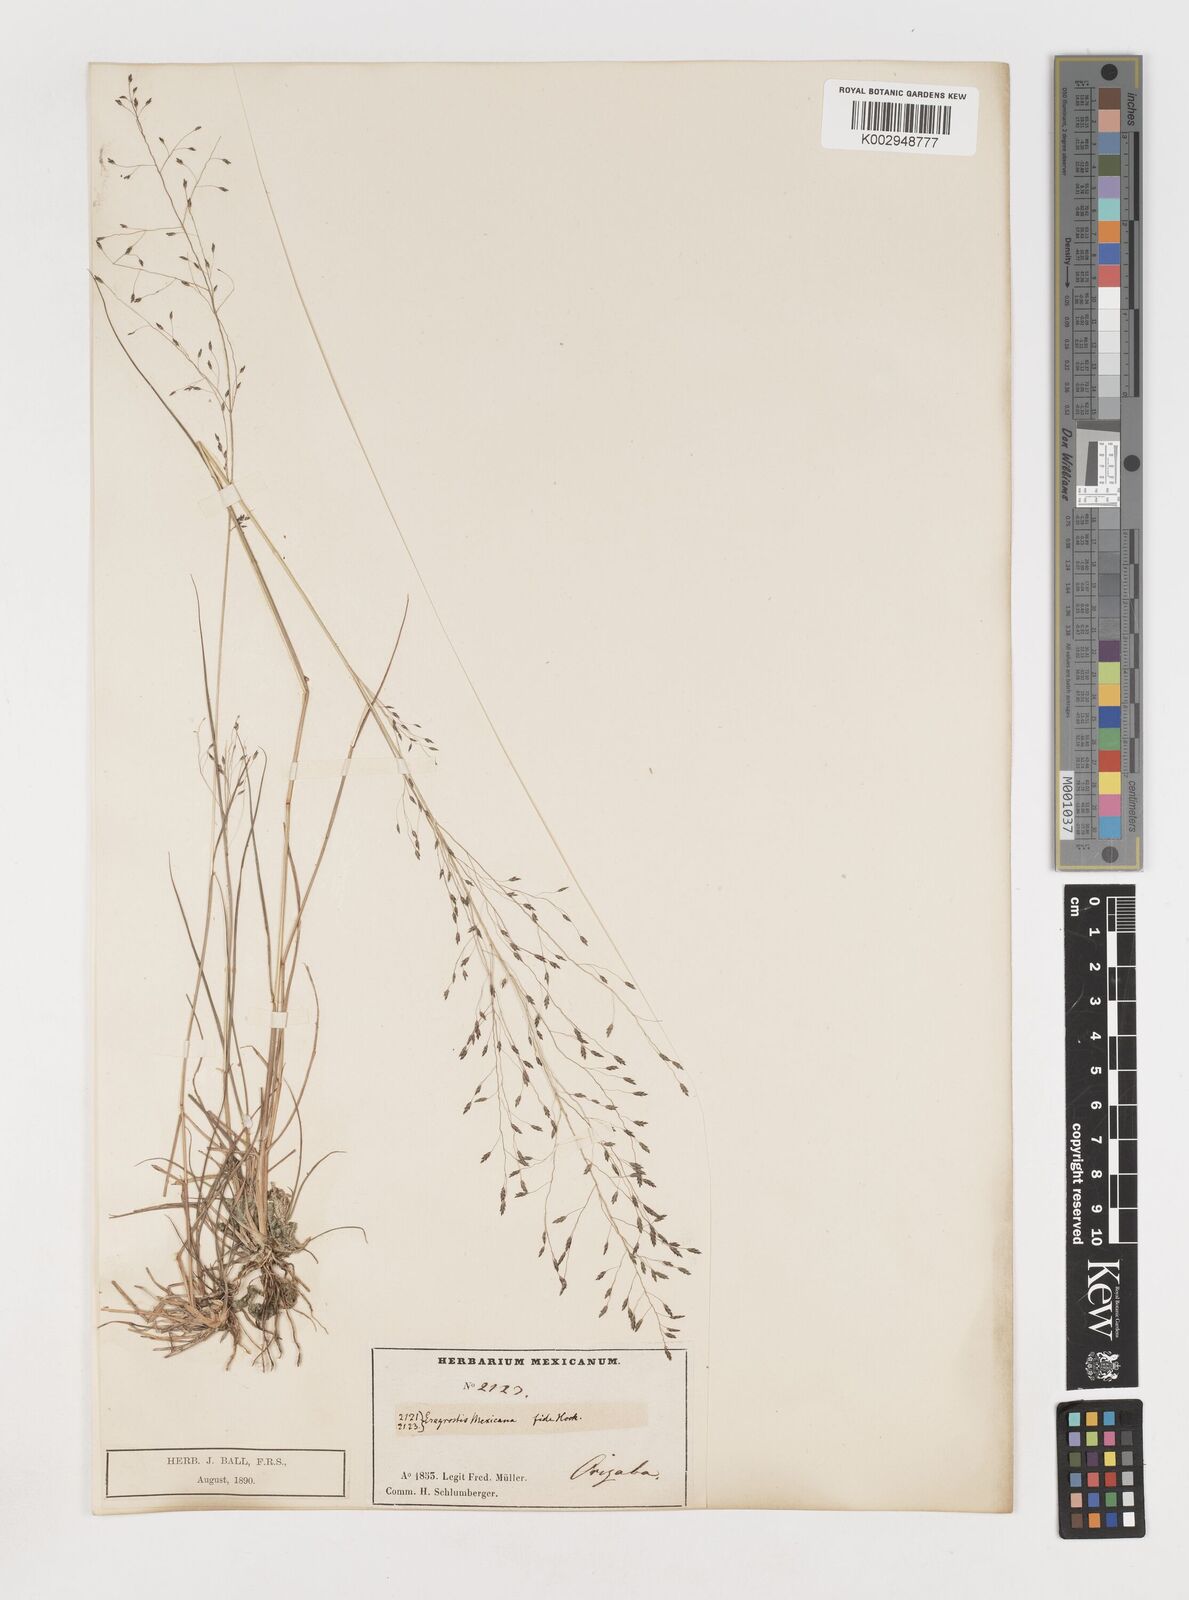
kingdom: Plantae
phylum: Tracheophyta
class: Liliopsida
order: Poales
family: Poaceae
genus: Eragrostis
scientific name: Eragrostis
